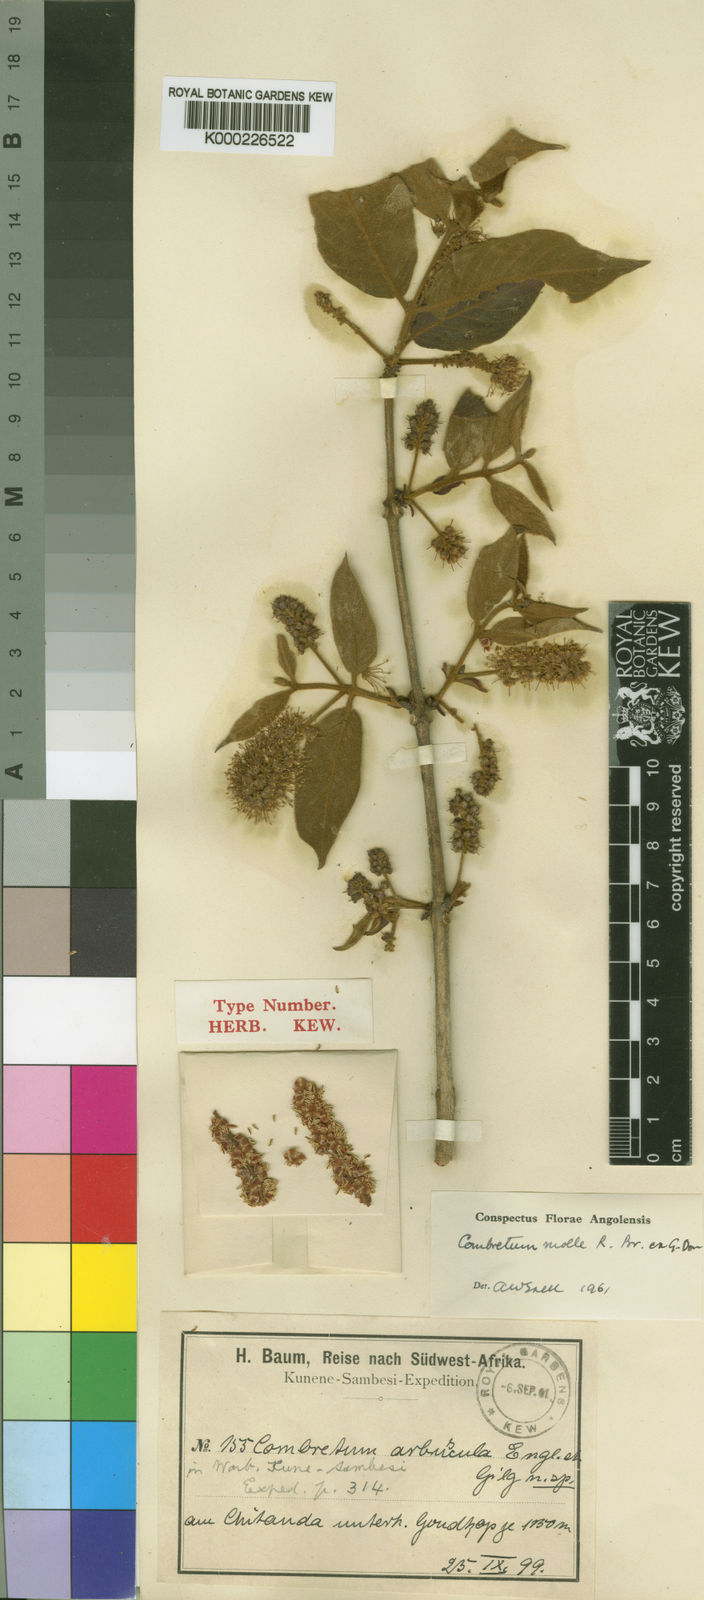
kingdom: Plantae
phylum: Tracheophyta
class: Magnoliopsida
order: Myrtales
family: Combretaceae
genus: Combretum
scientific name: Combretum molle
